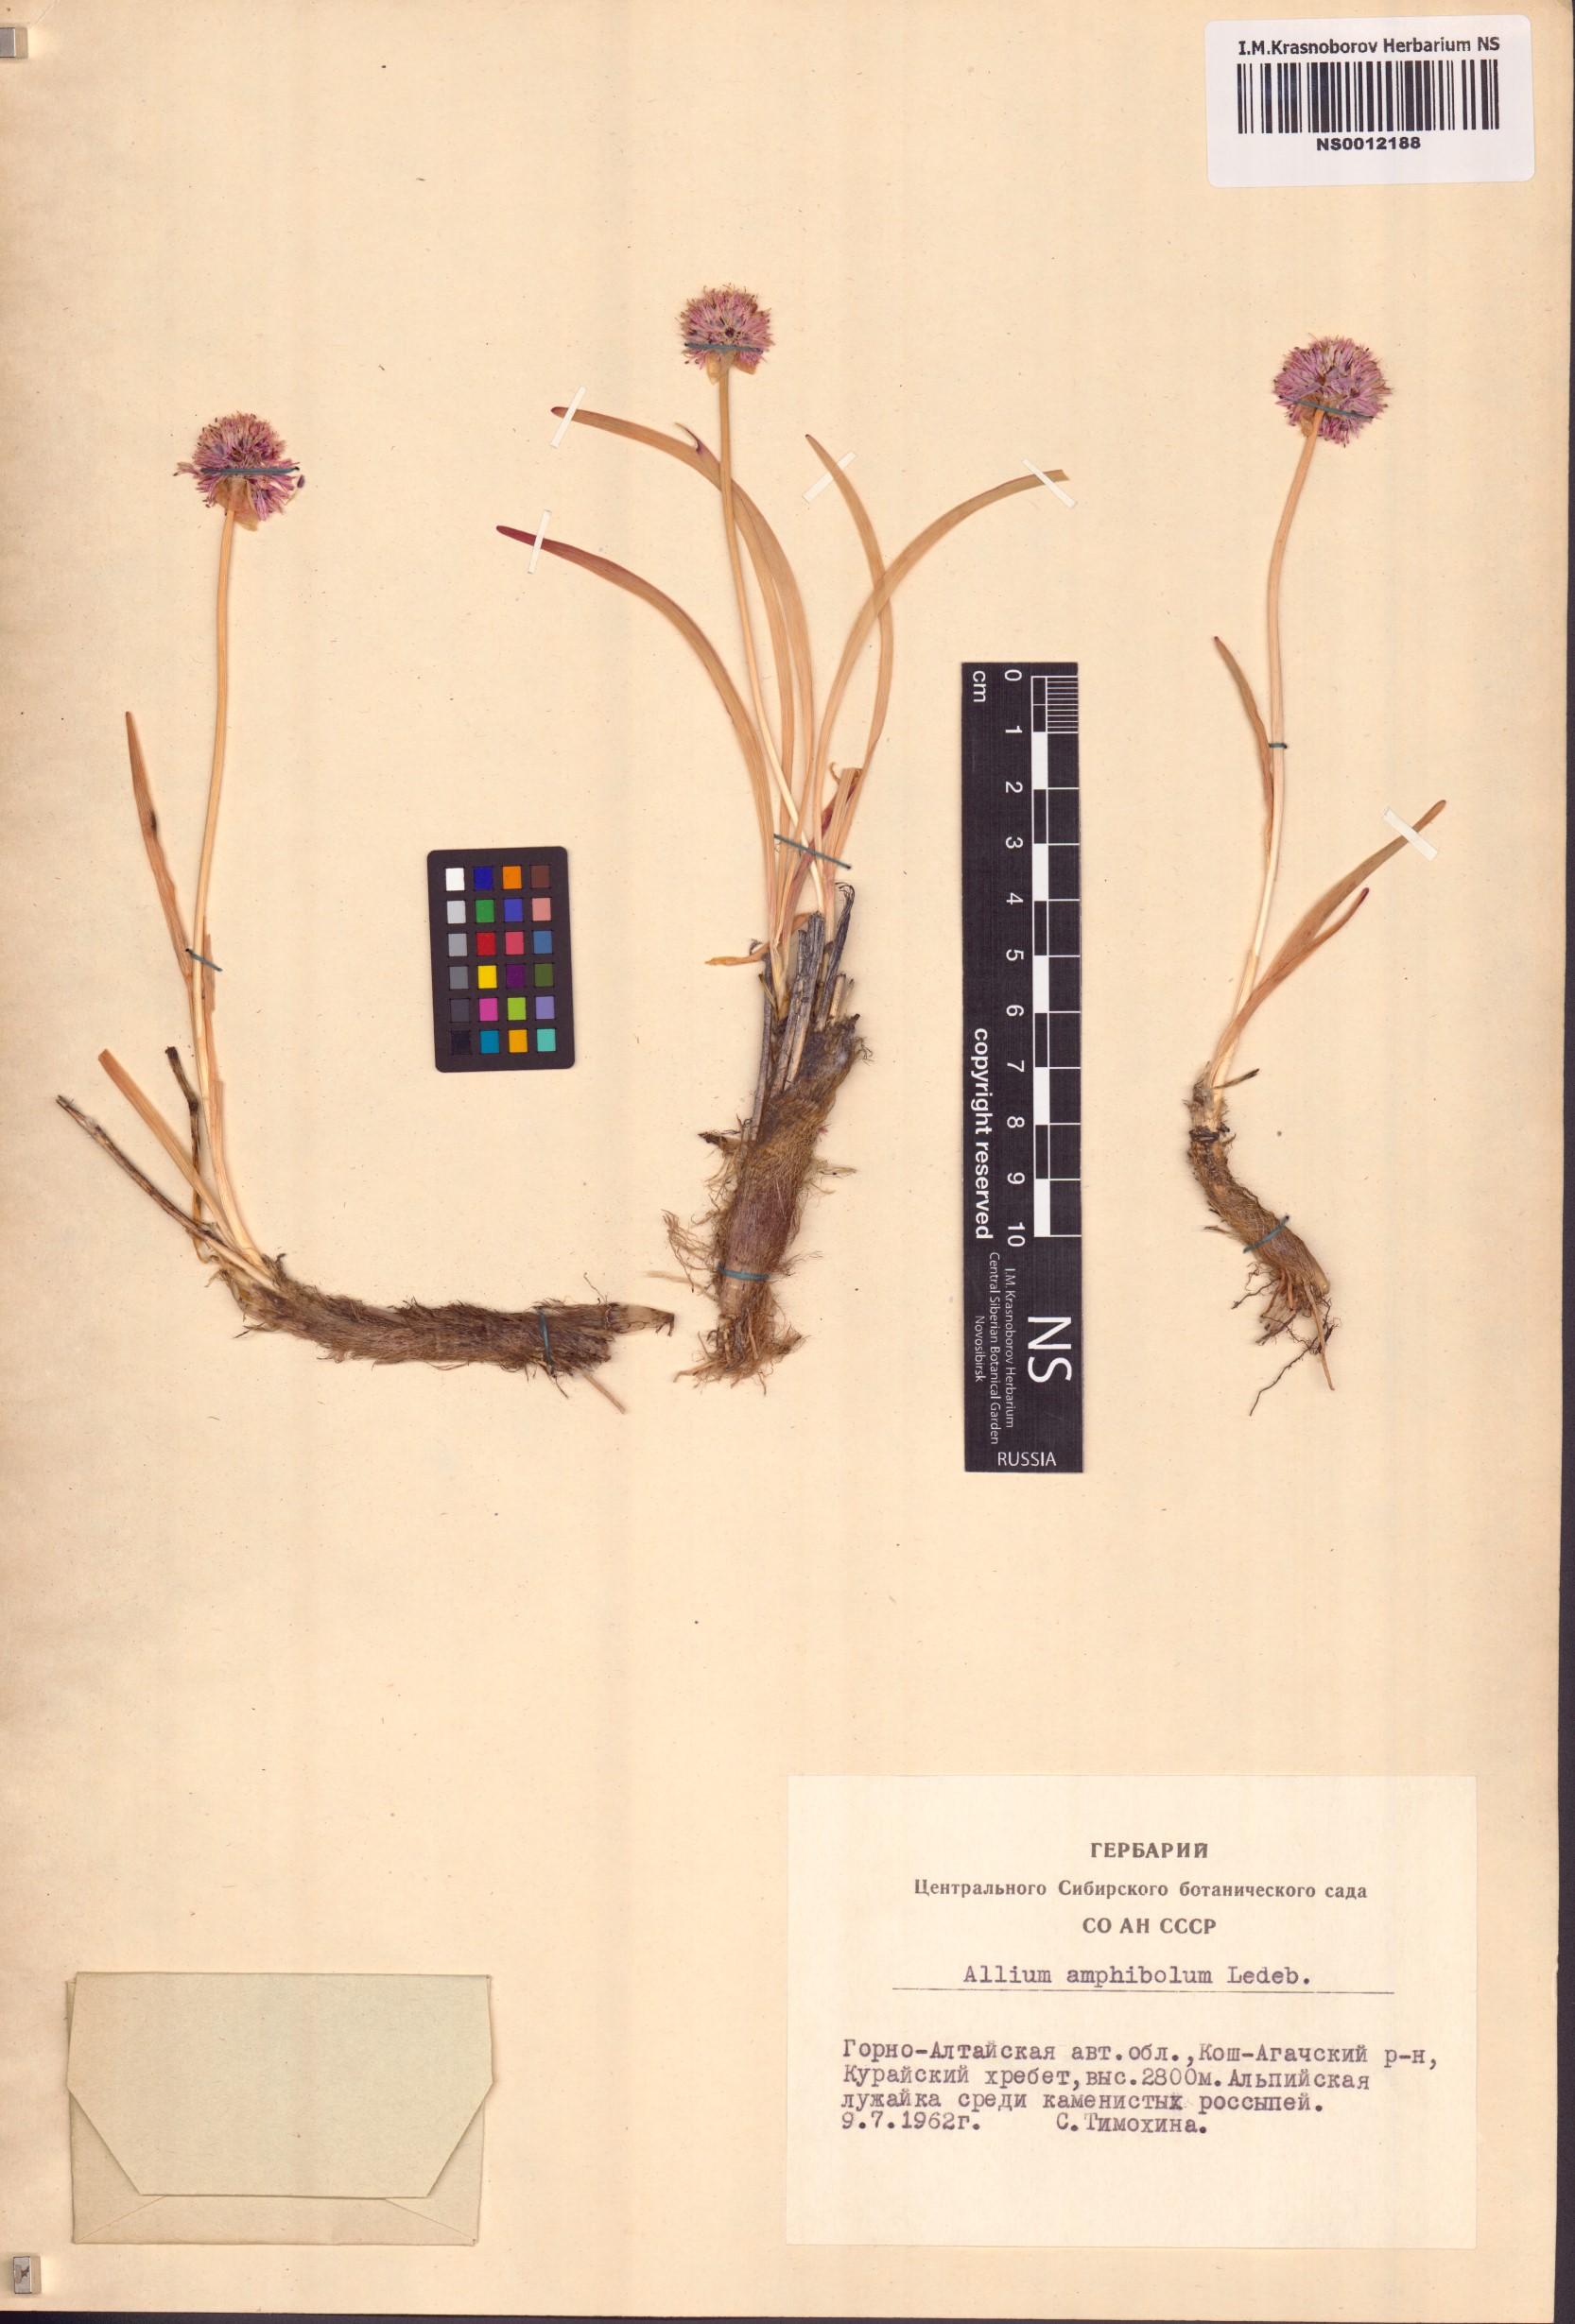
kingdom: Plantae
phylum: Tracheophyta
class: Liliopsida
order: Asparagales
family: Amaryllidaceae
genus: Allium
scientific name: Allium amphibolum
